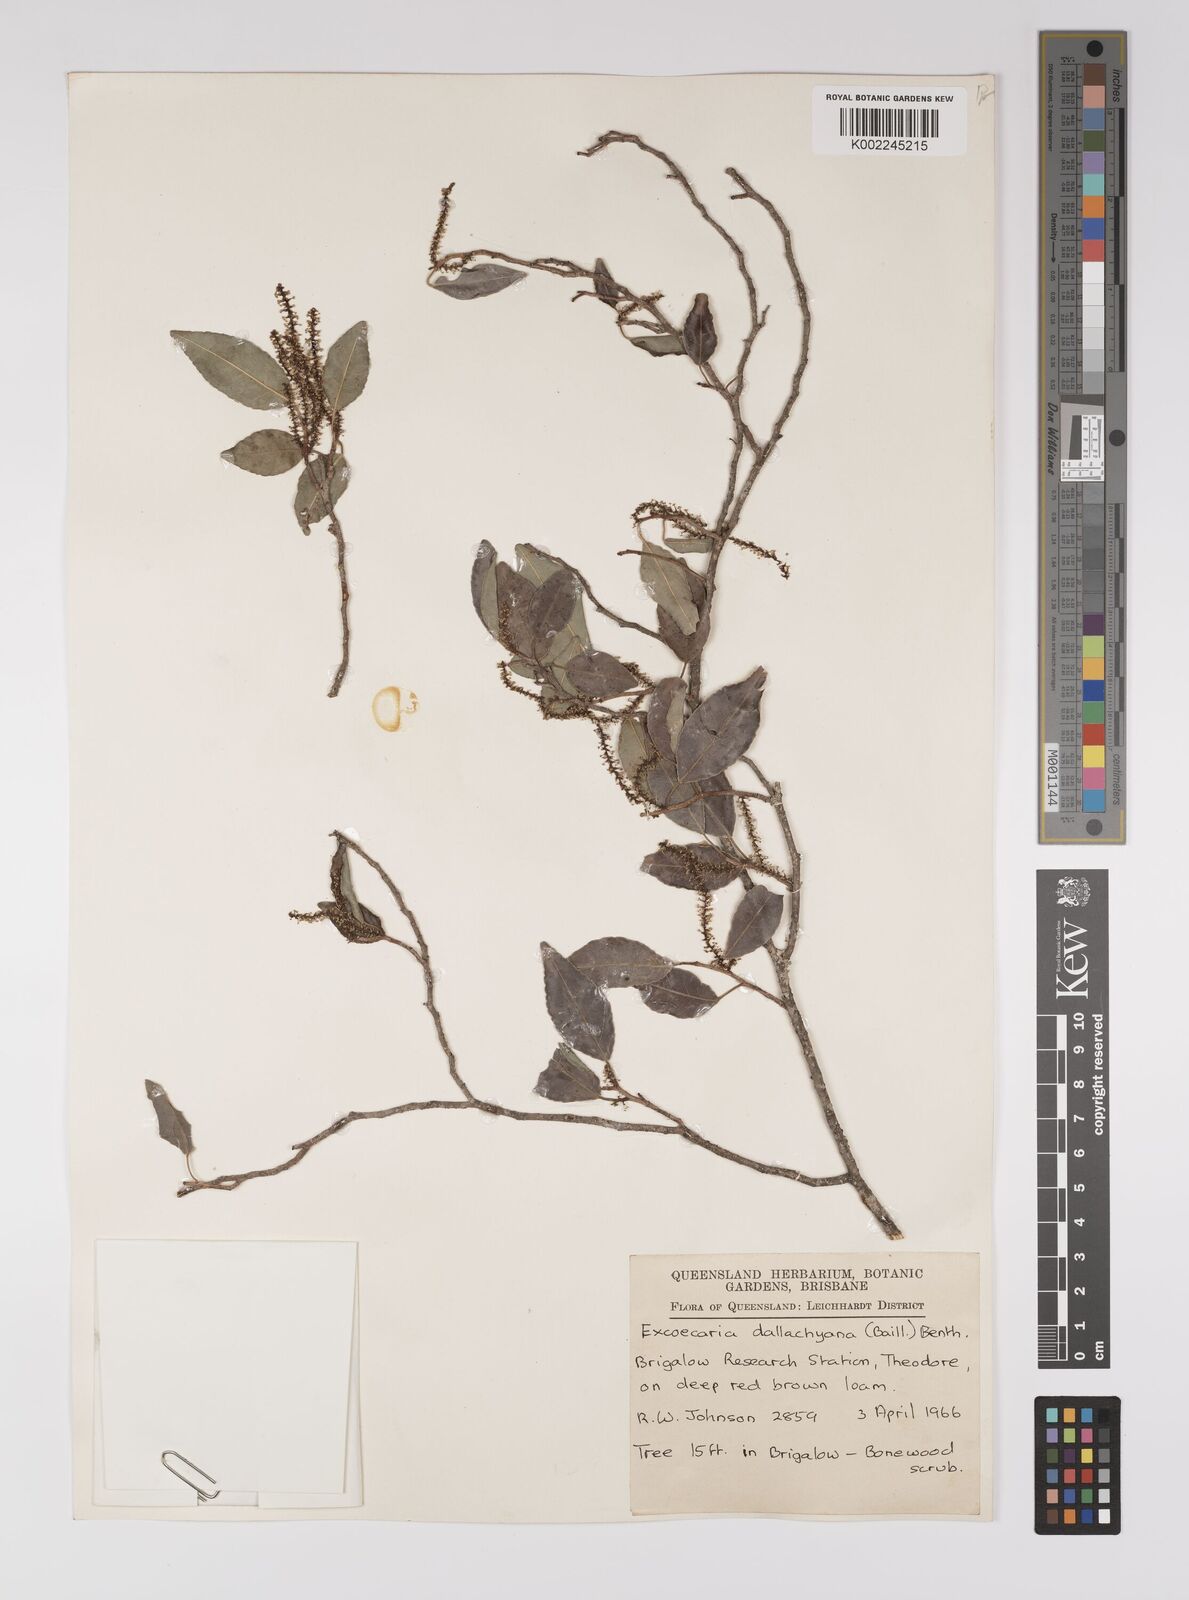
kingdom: Plantae
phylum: Tracheophyta
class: Magnoliopsida
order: Malpighiales
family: Euphorbiaceae
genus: Excoecaria
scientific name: Excoecaria dallachyana
